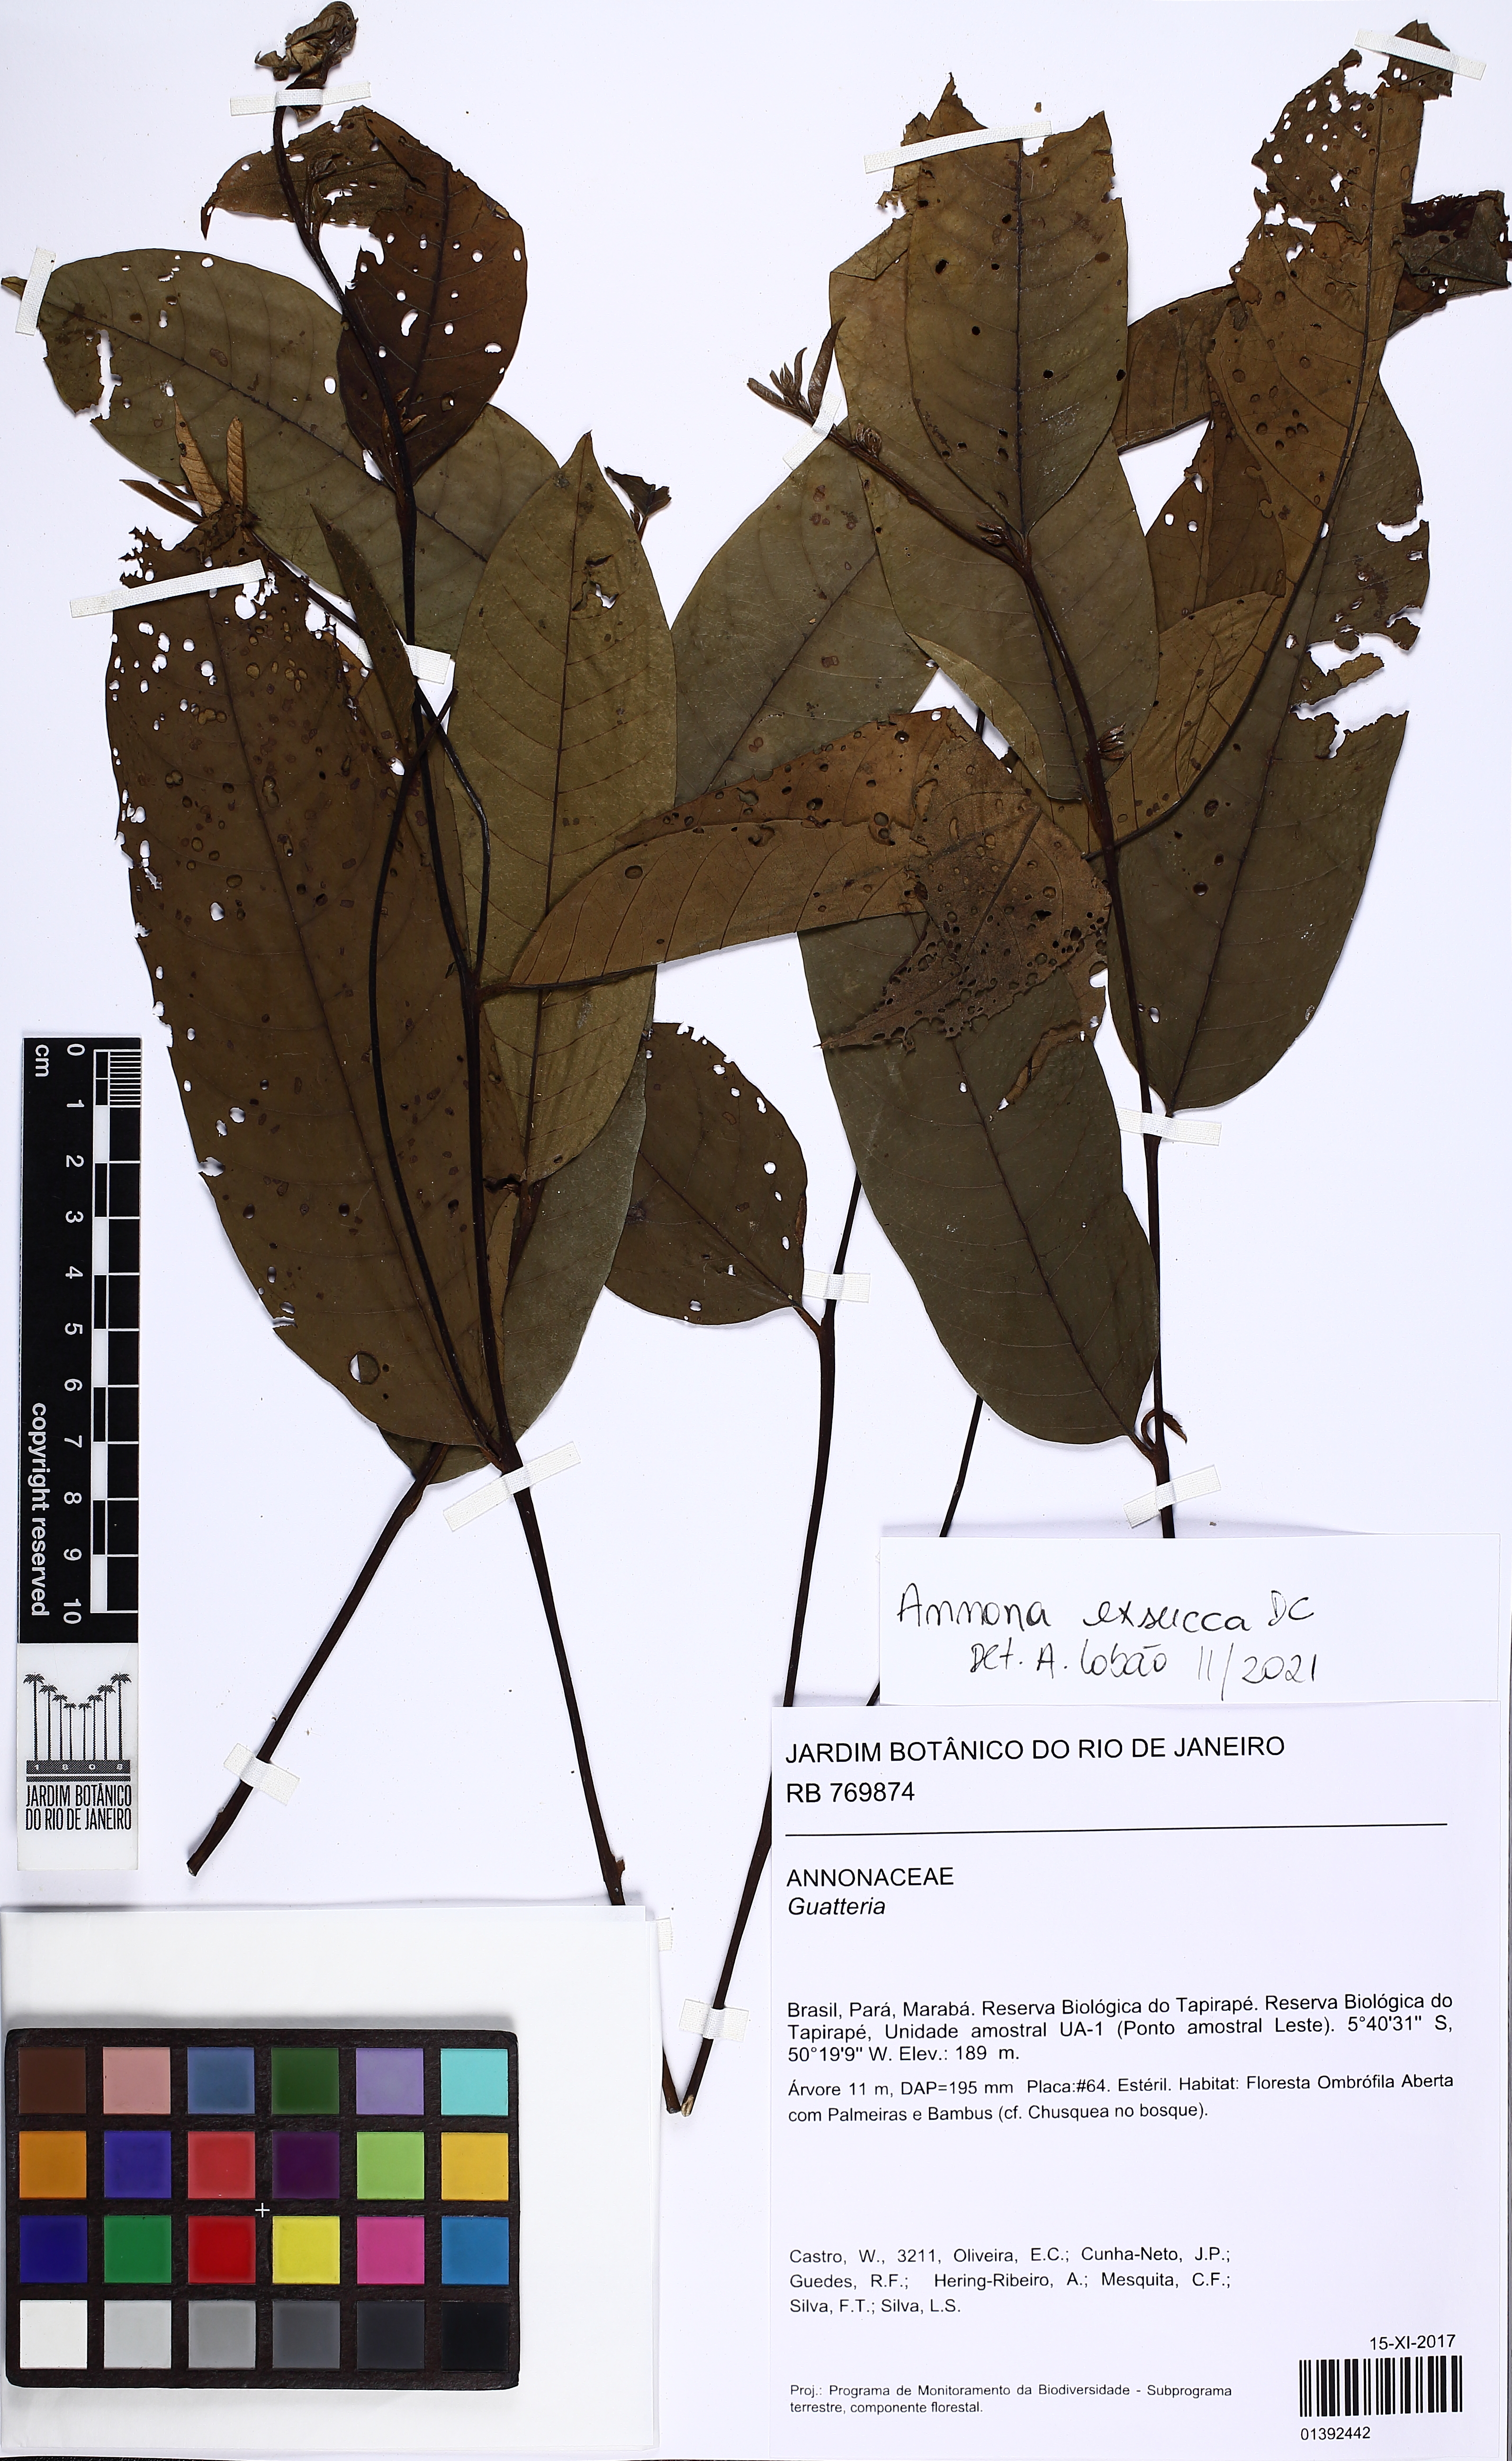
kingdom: Plantae
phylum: Tracheophyta
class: Magnoliopsida
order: Magnoliales
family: Annonaceae
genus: Annona
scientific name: Annona exsucca
